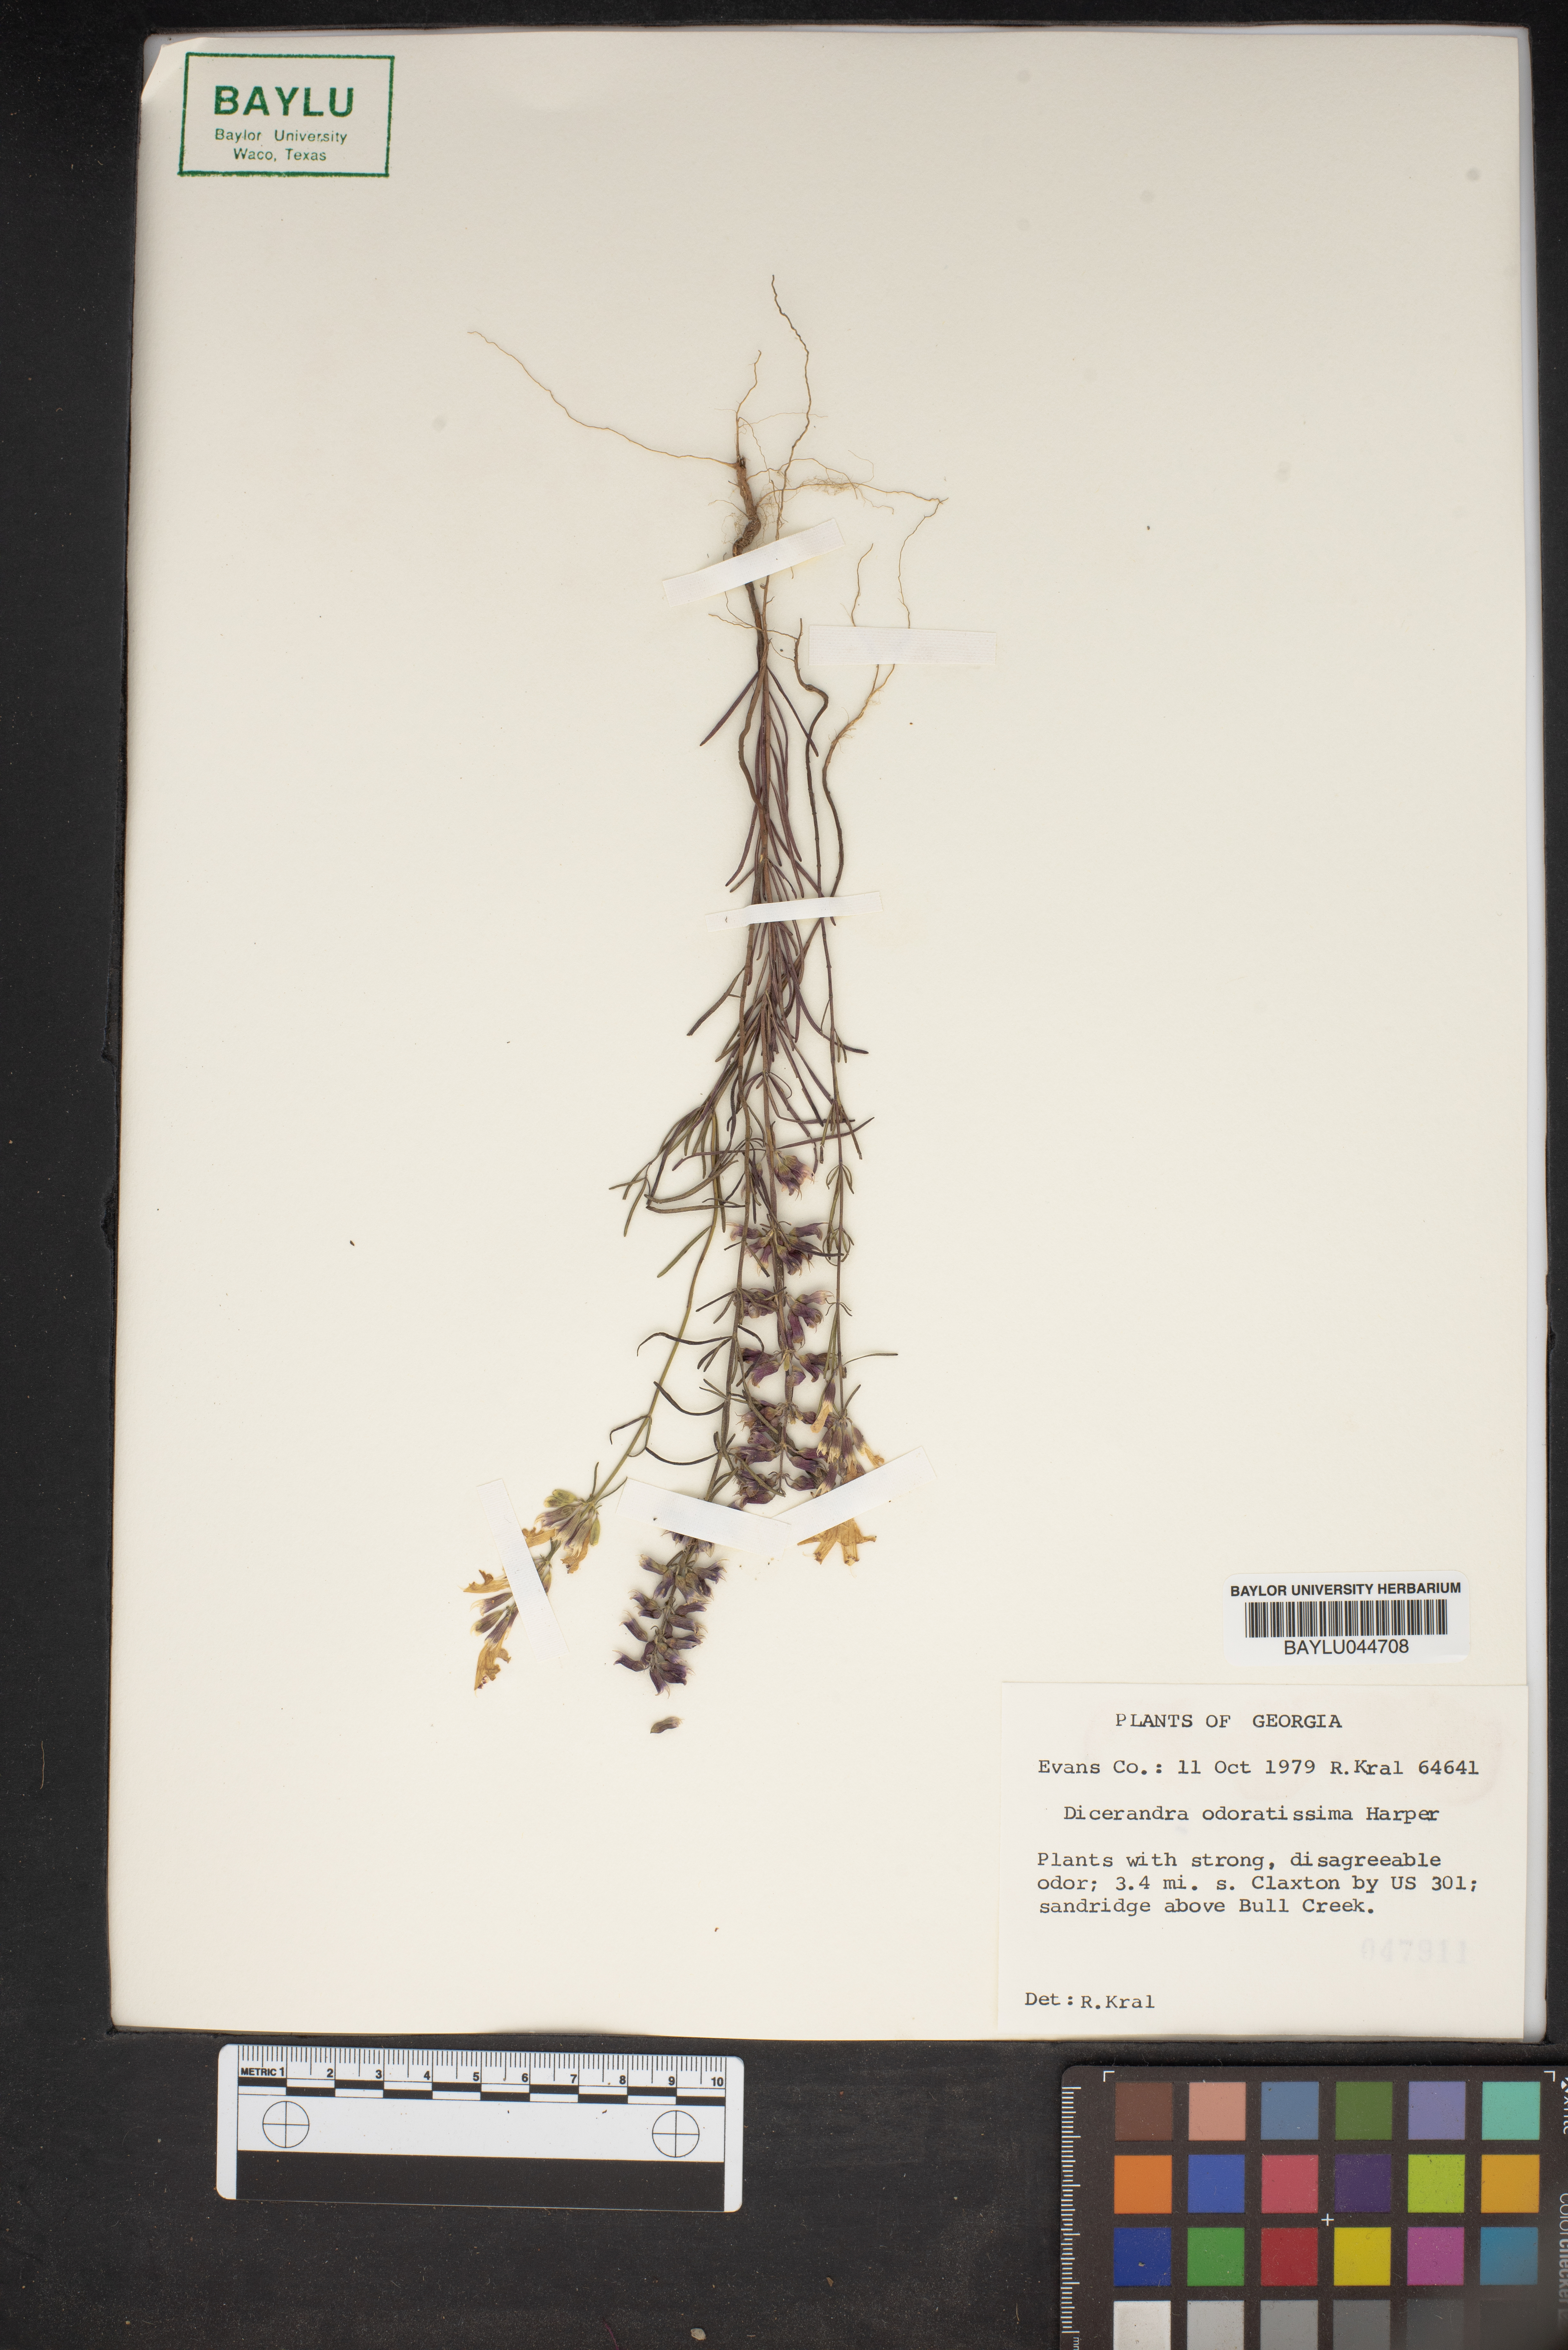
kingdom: Plantae
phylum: Tracheophyta
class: Magnoliopsida
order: Lamiales
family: Lamiaceae
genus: Dicerandra
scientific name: Dicerandra odoratissima
